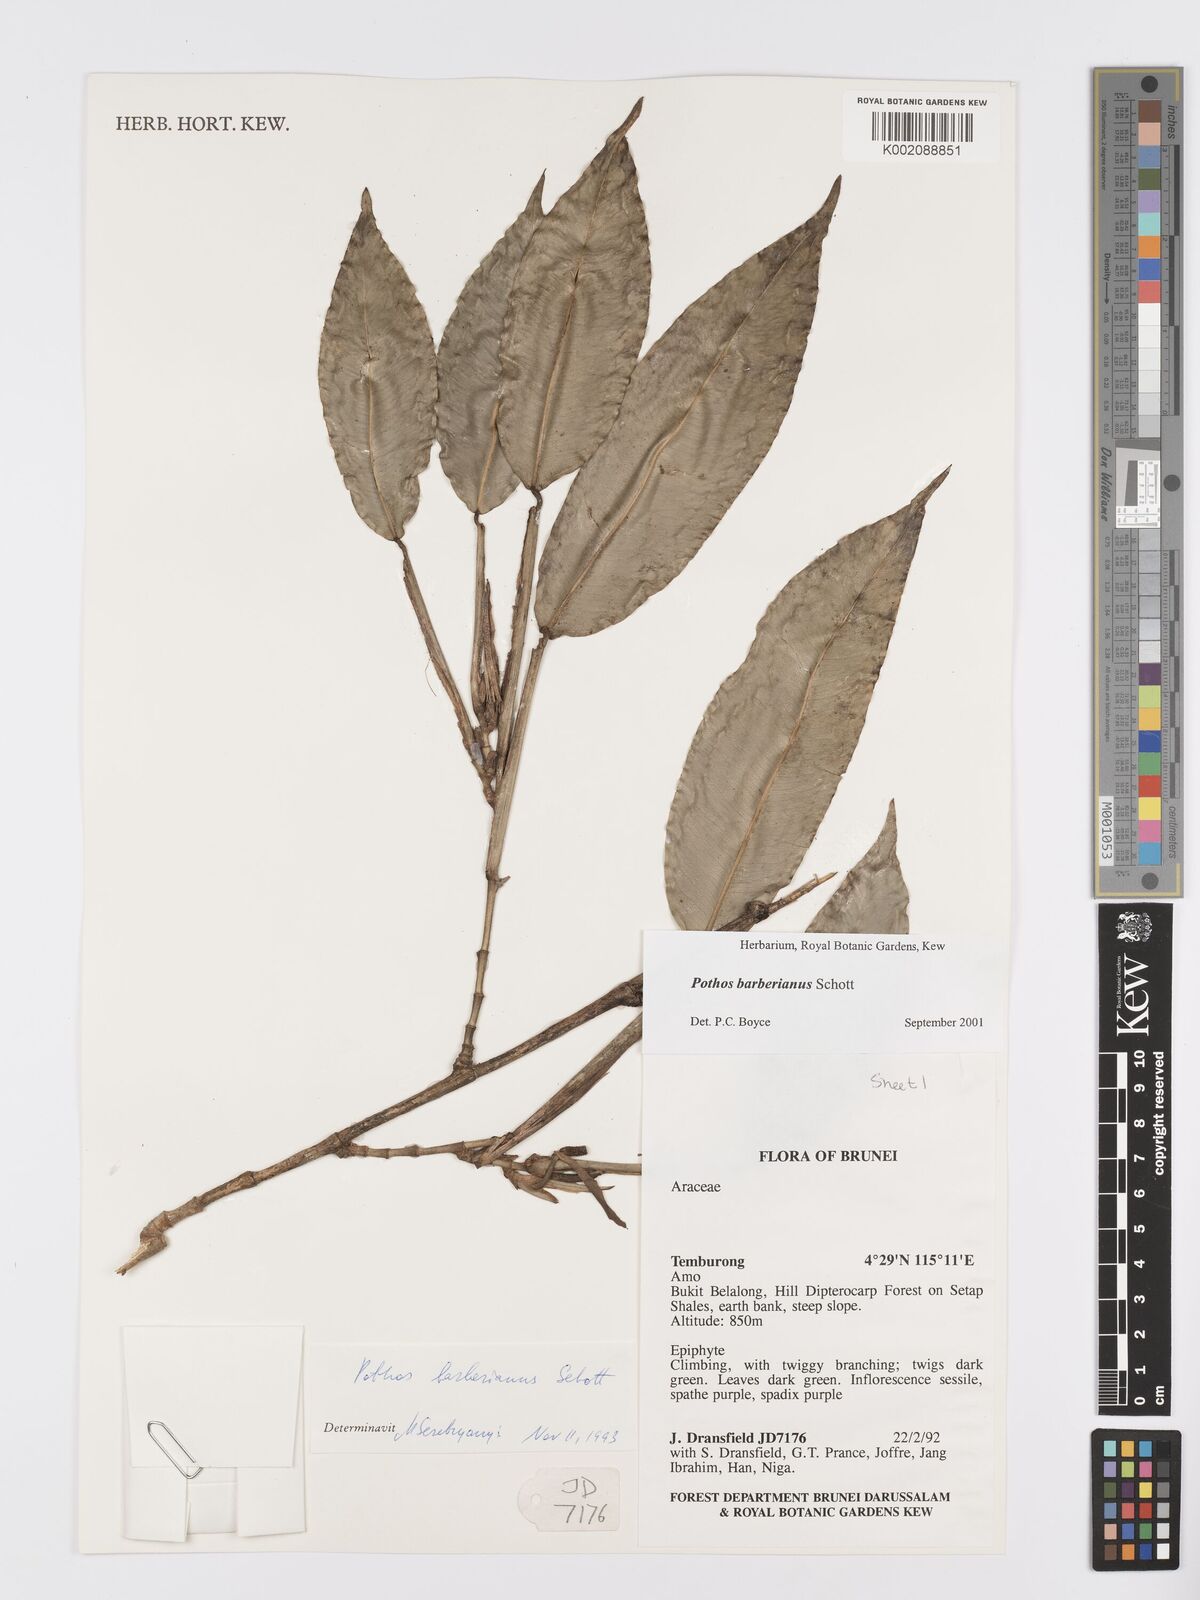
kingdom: Plantae
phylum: Tracheophyta
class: Liliopsida
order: Alismatales
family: Araceae
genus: Pothos
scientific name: Pothos barberianus
